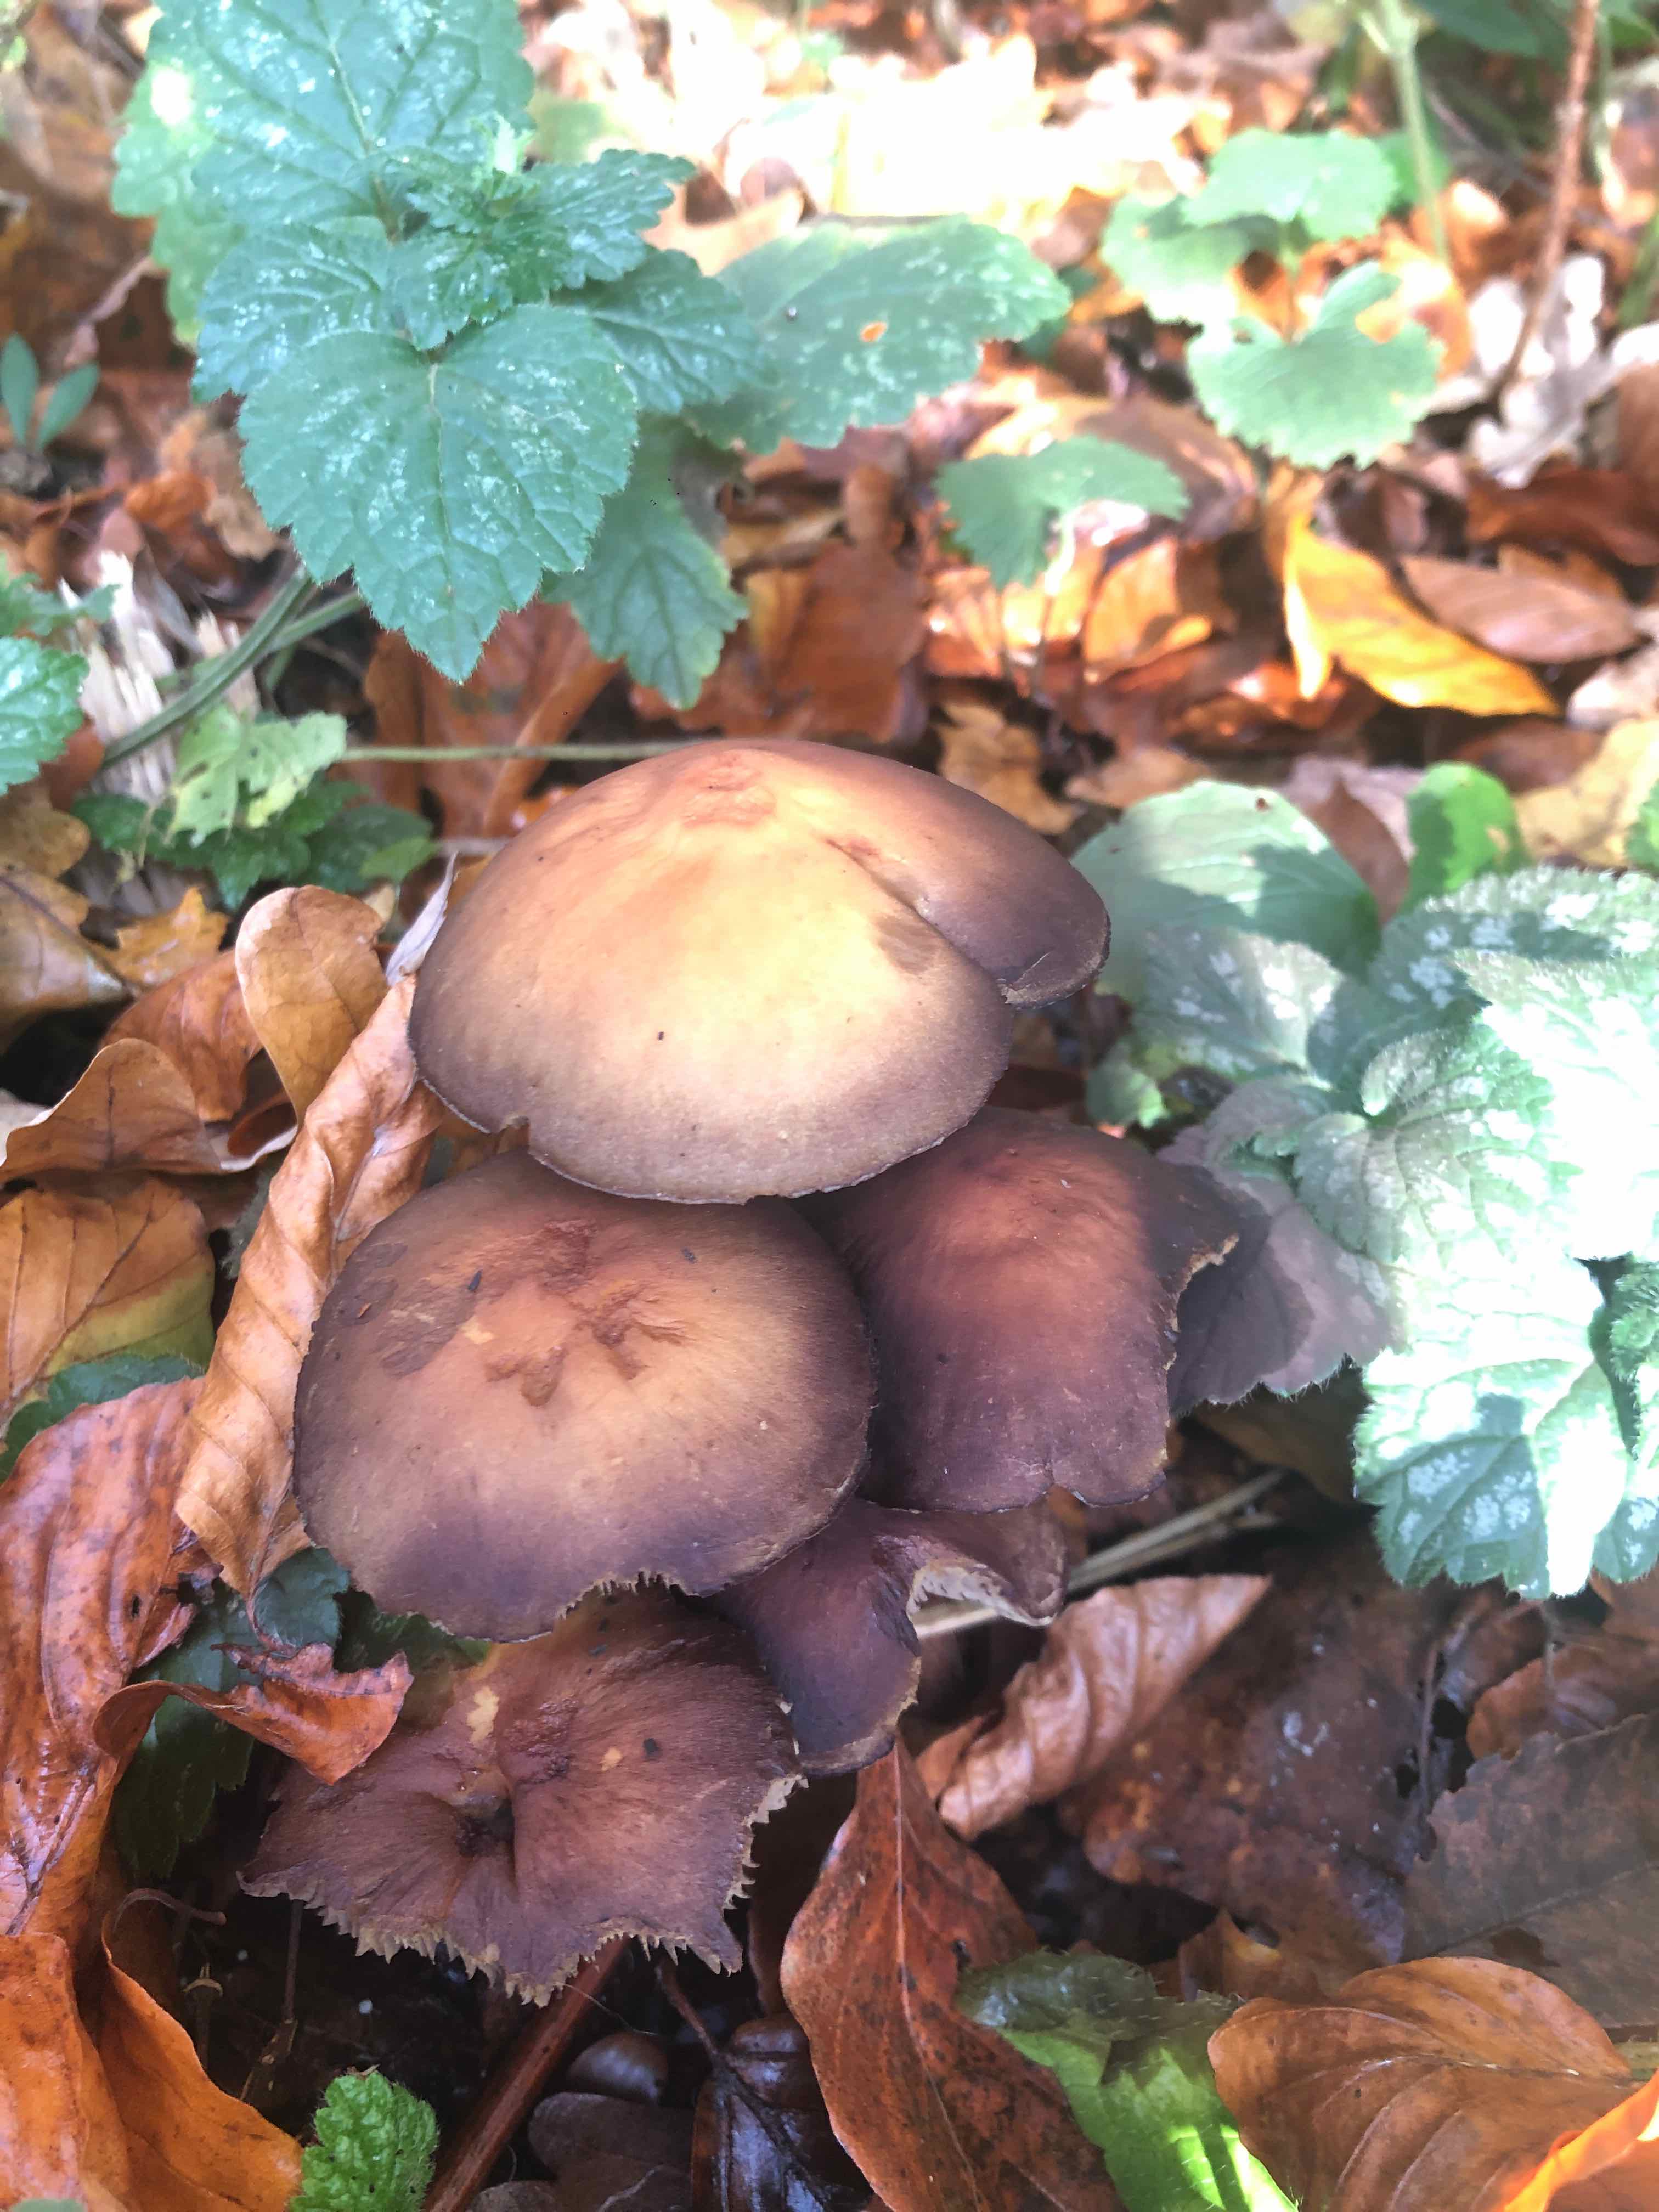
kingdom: Fungi
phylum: Basidiomycota
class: Agaricomycetes
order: Agaricales
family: Strophariaceae
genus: Hypholoma
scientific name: Hypholoma fasciculare
